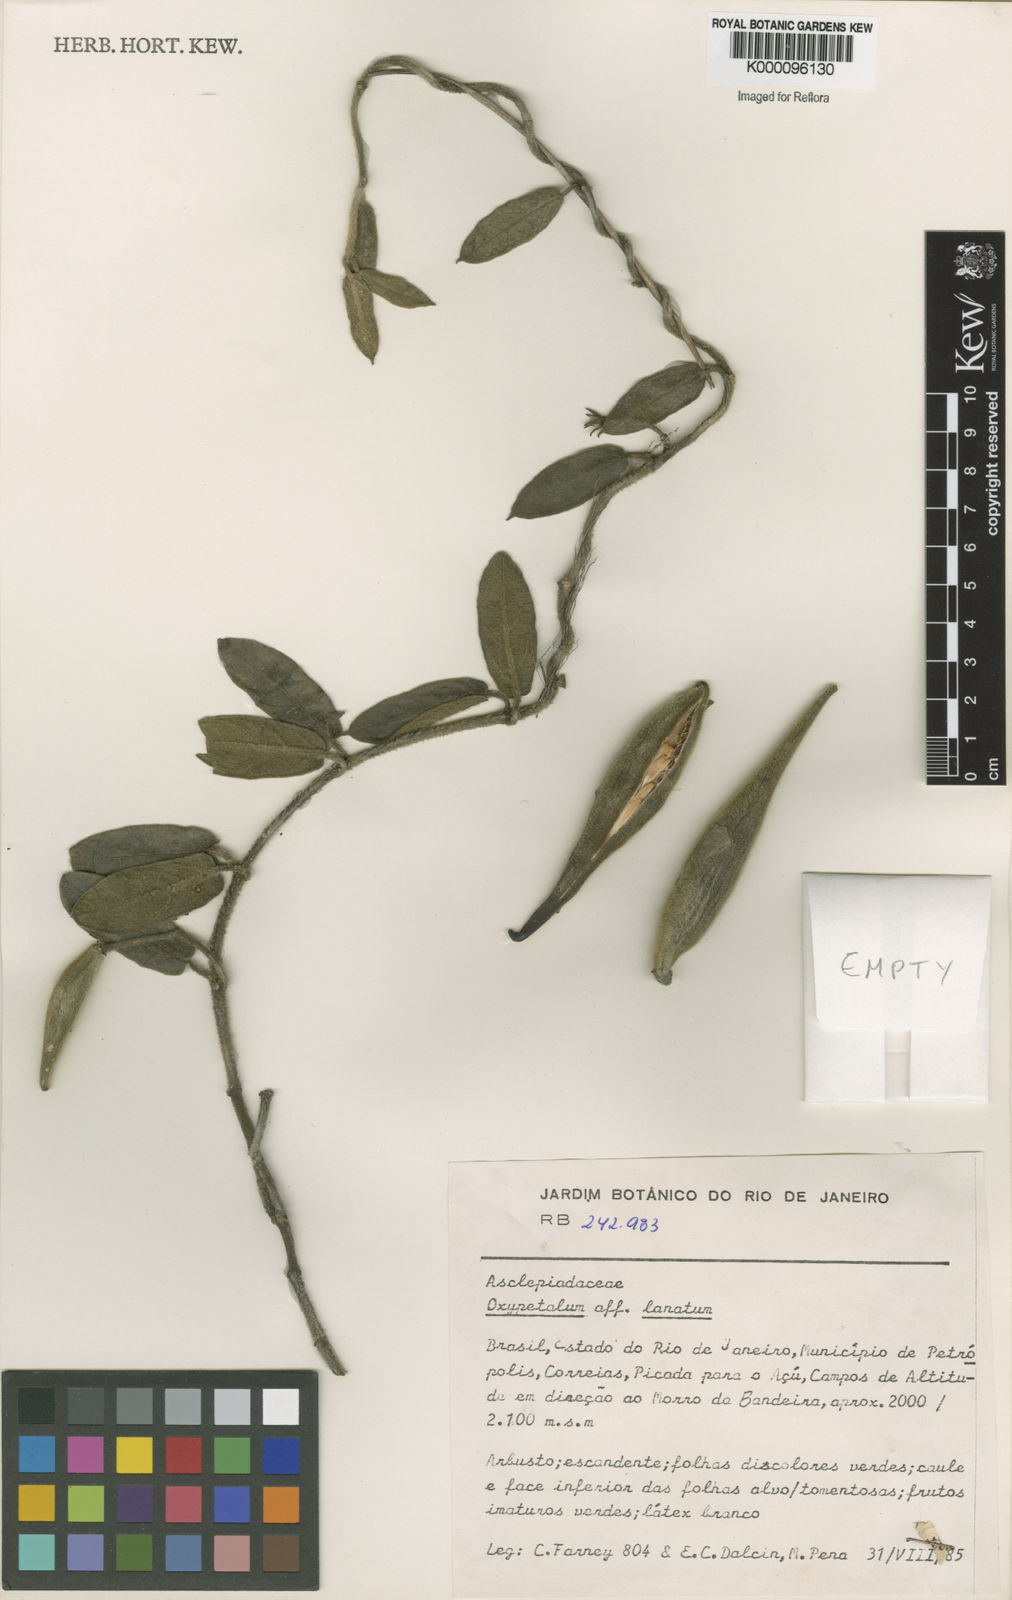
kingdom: Plantae
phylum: Tracheophyta
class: Magnoliopsida
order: Gentianales
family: Apocynaceae
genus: Oxypetalum
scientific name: Oxypetalum lanatum
